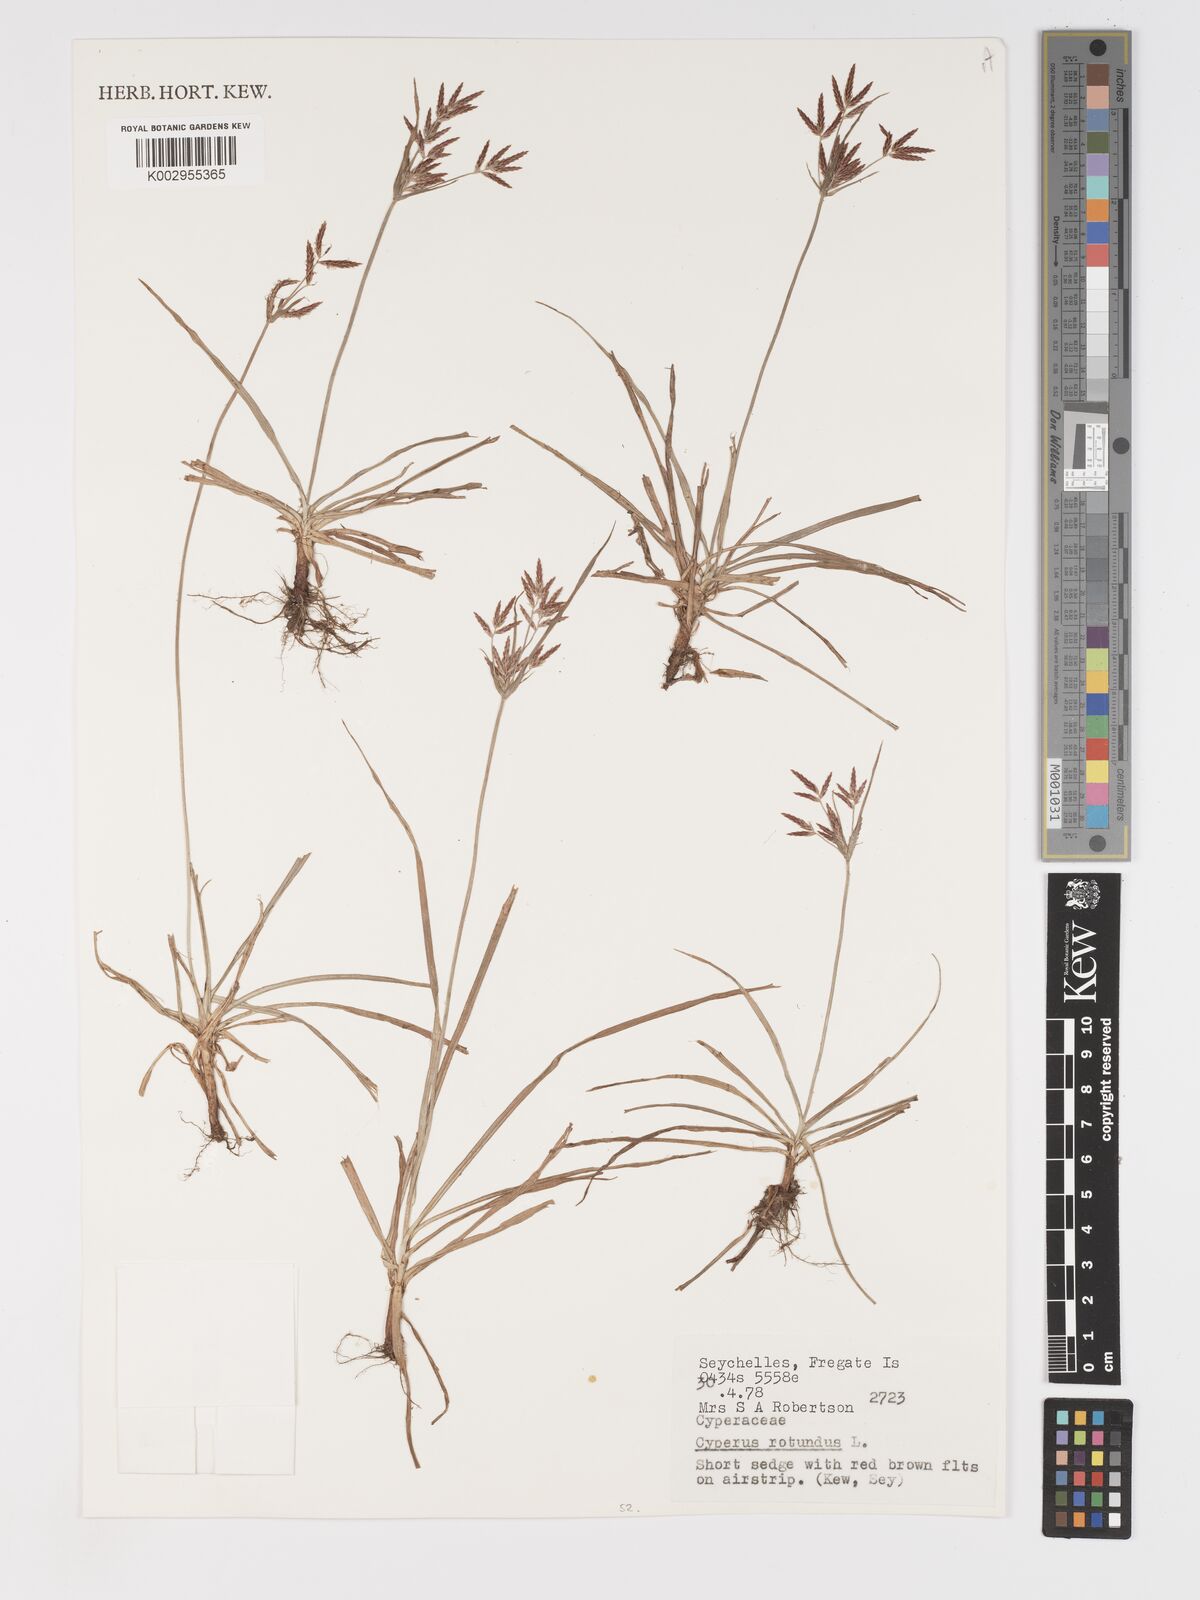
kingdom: Plantae
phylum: Tracheophyta
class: Liliopsida
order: Poales
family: Cyperaceae
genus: Cyperus
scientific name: Cyperus rotundus
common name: Nutgrass
